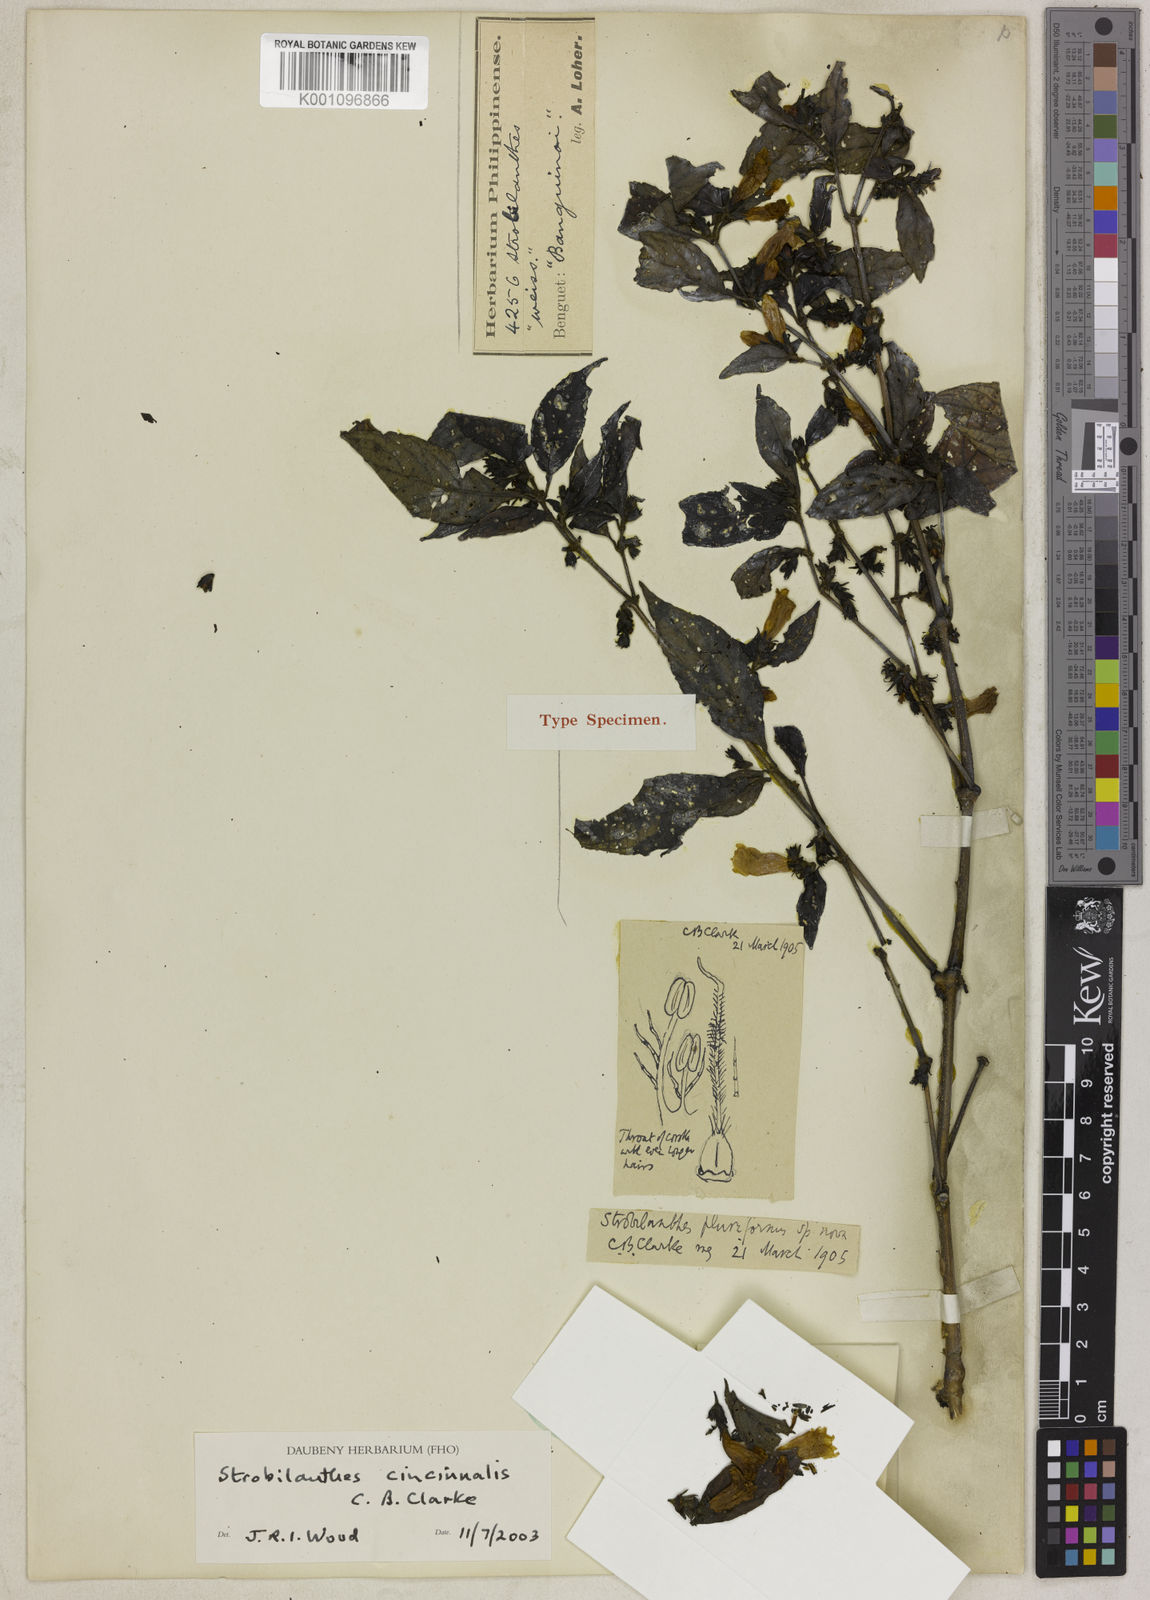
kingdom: Plantae
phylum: Tracheophyta
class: Magnoliopsida
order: Lamiales
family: Acanthaceae
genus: Strobilanthes
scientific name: Strobilanthes cincinnalis
